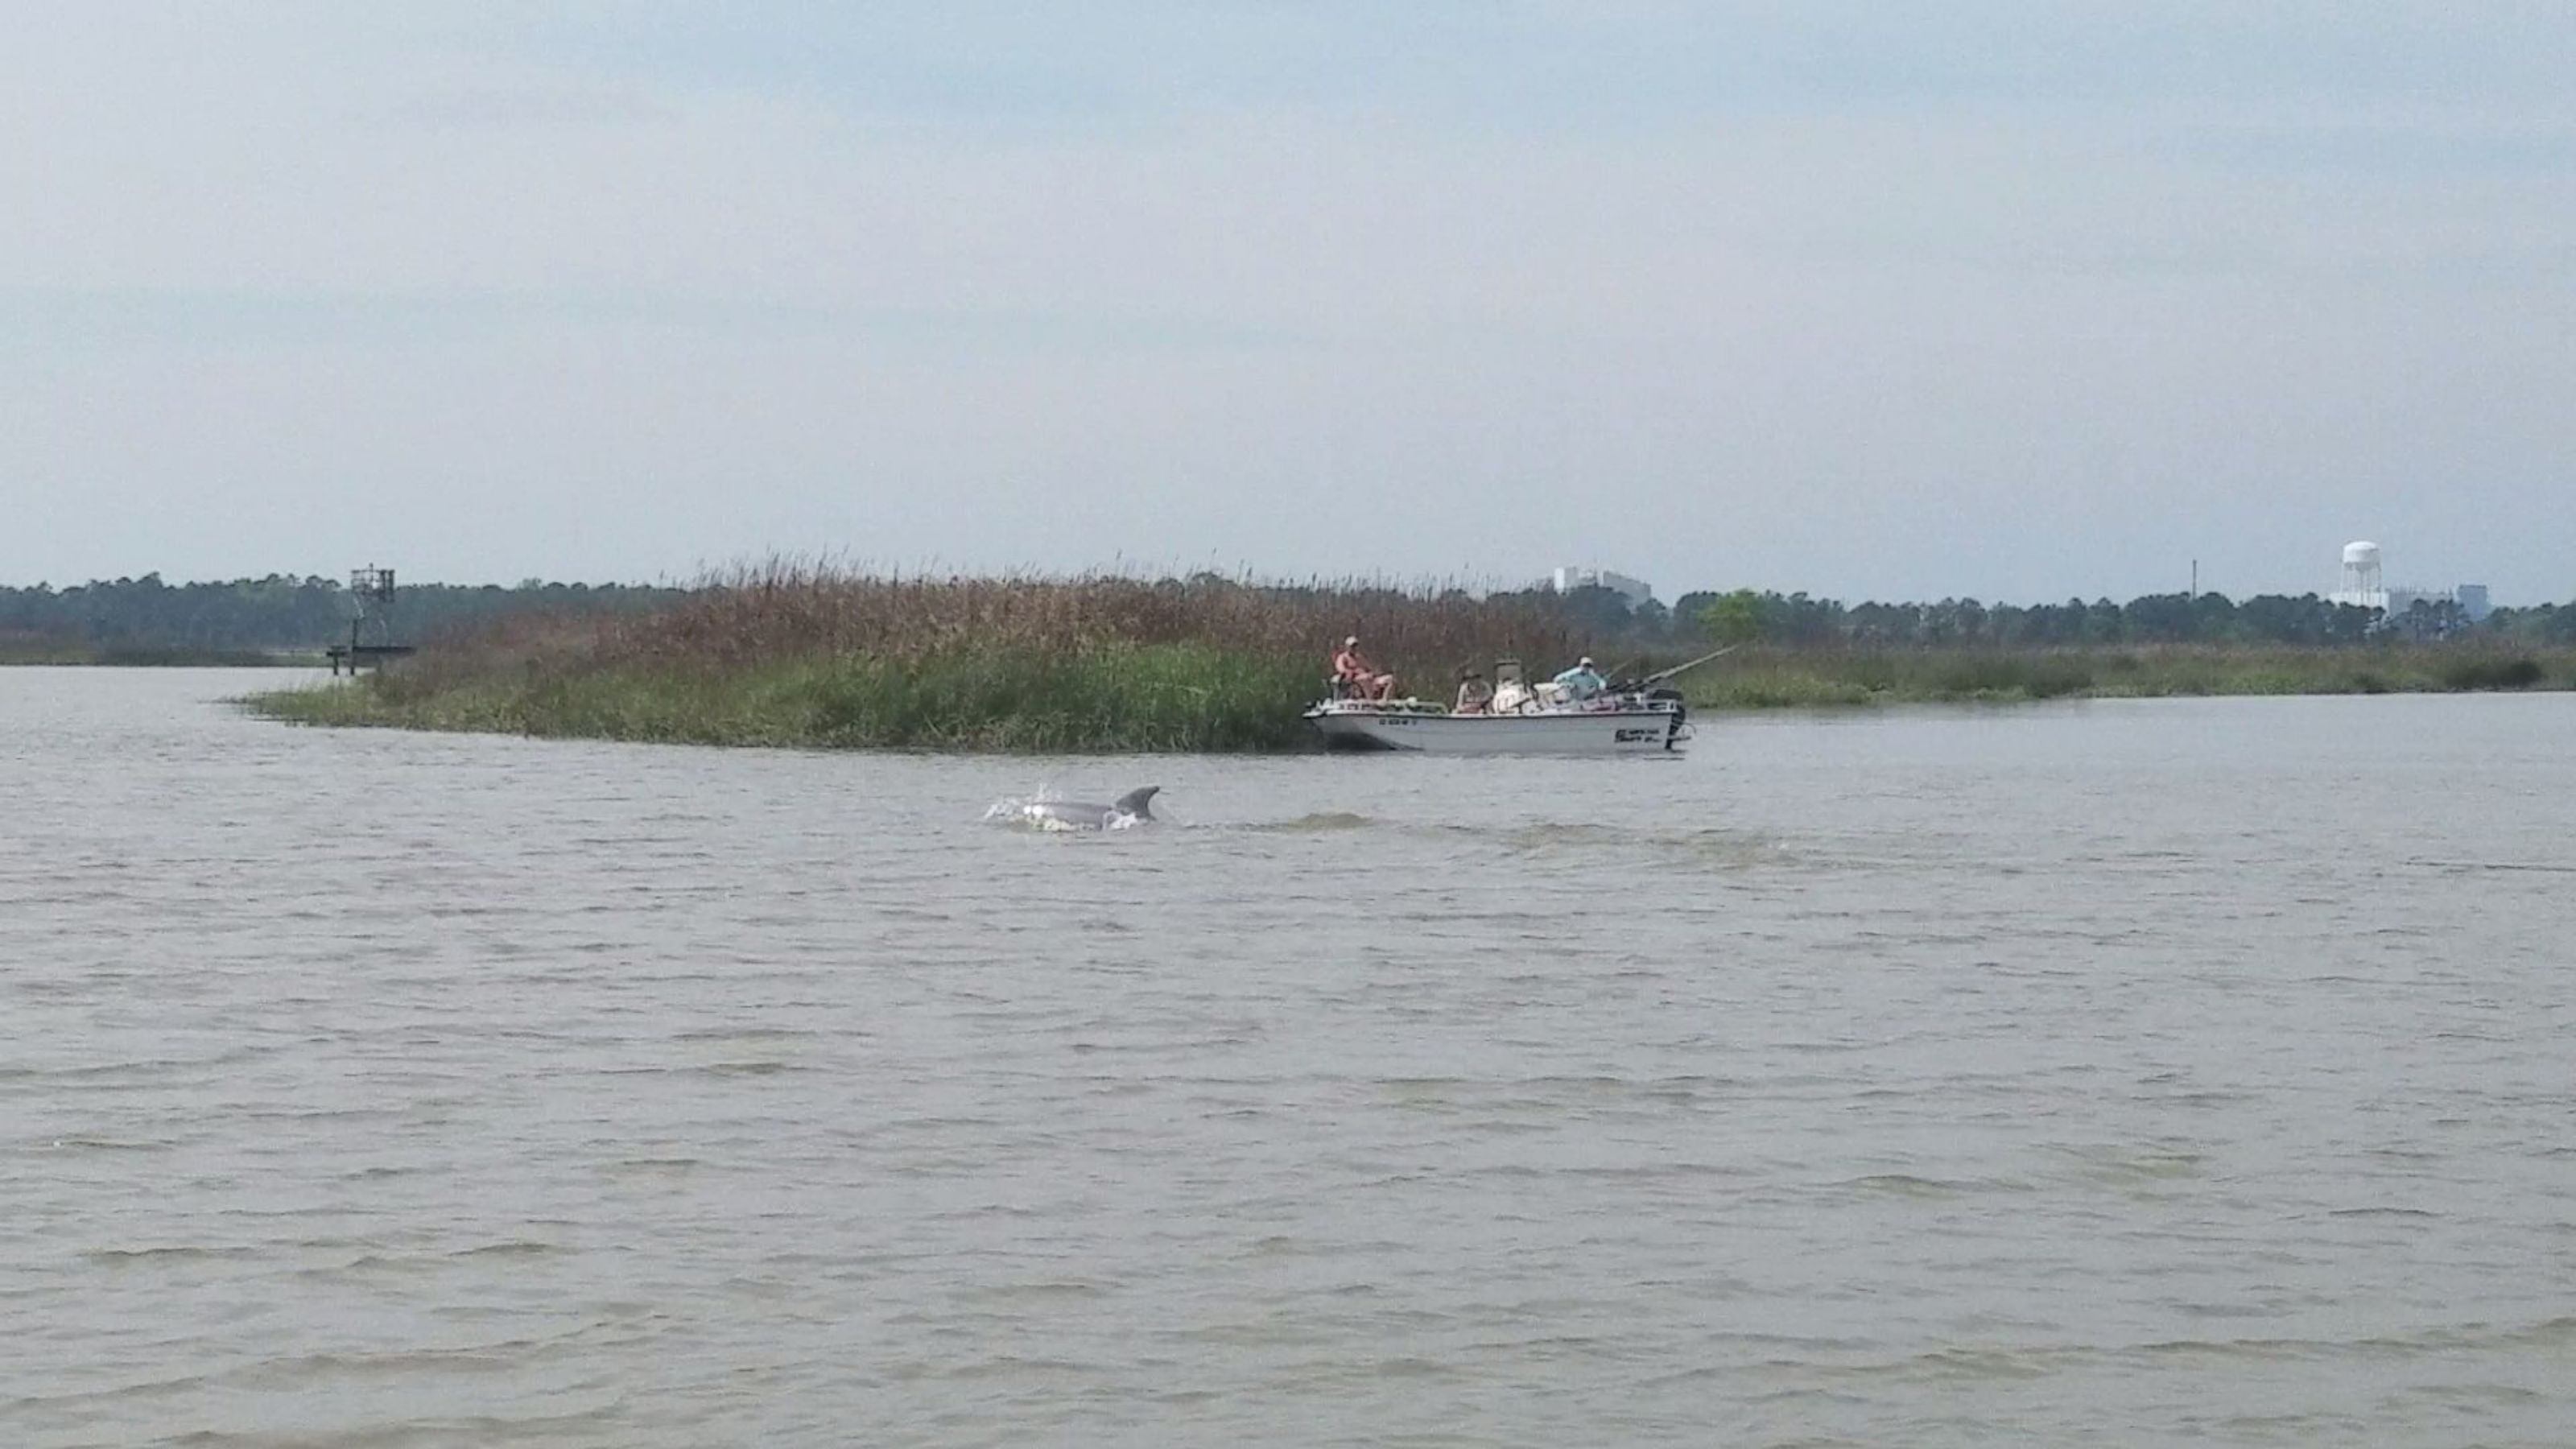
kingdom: Animalia
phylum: Chordata
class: Mammalia
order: Cetacea
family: Delphinidae
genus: Tursiops
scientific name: Tursiops truncatus
